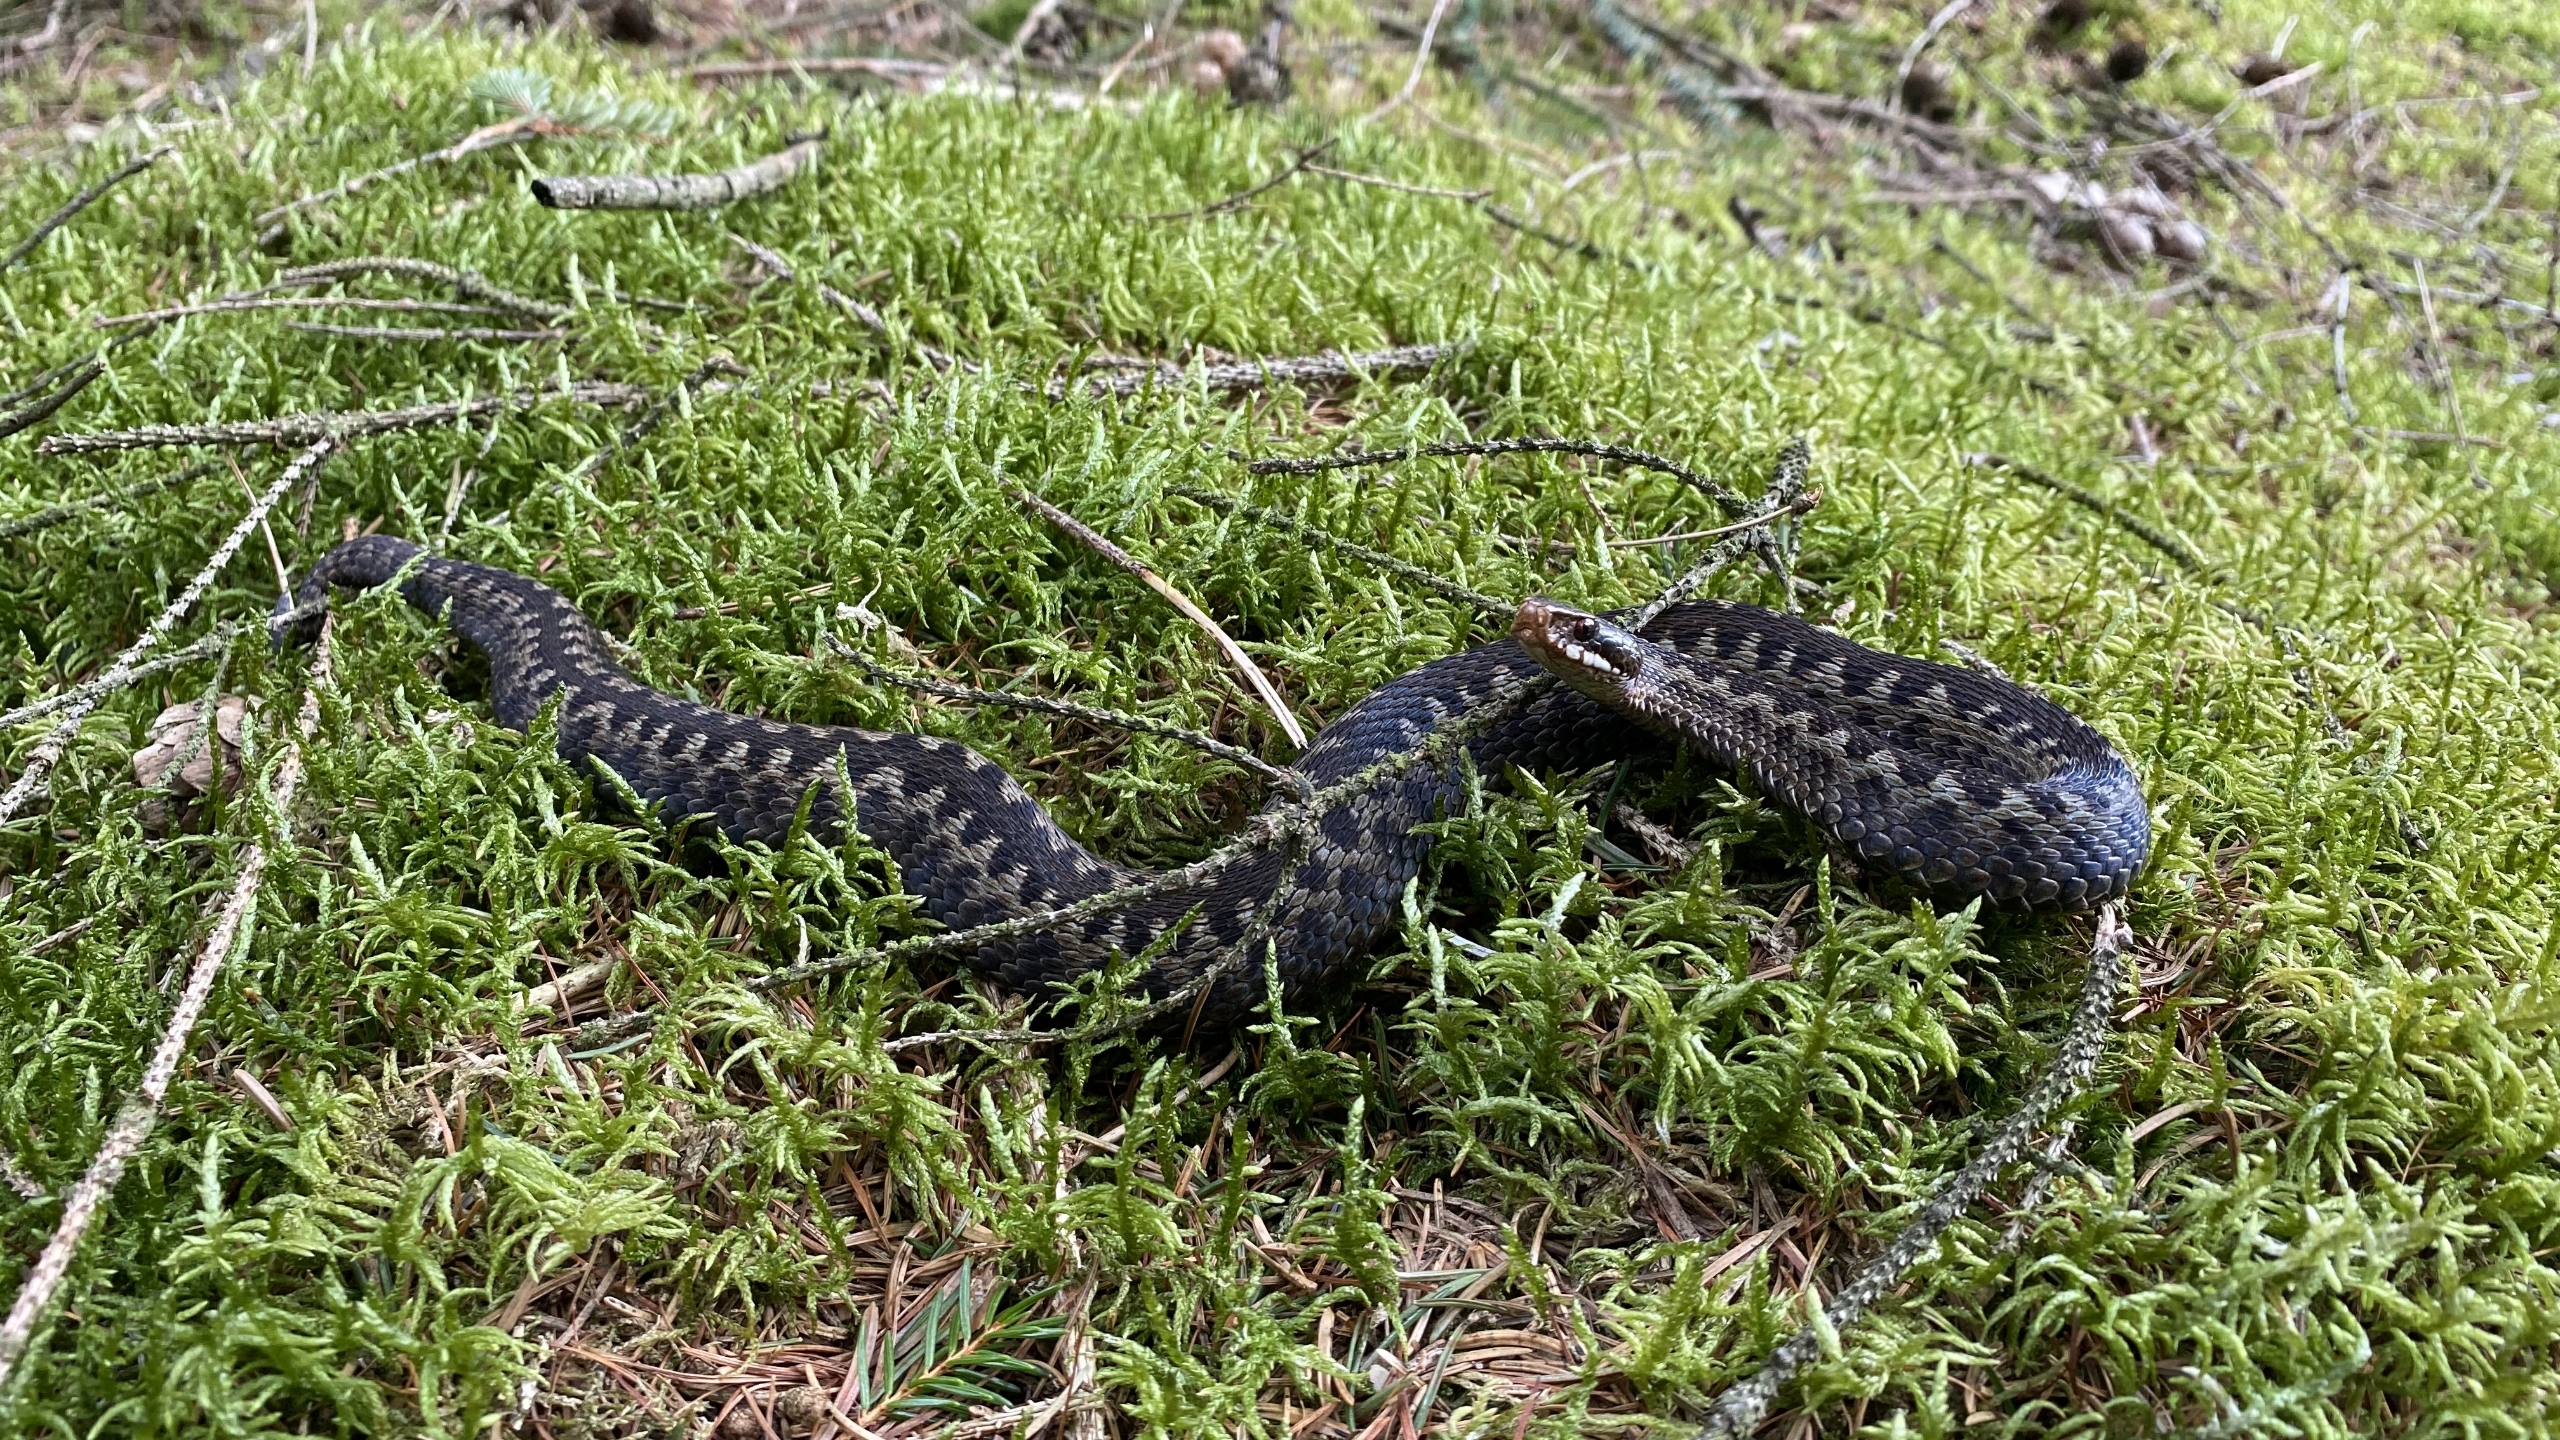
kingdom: Animalia
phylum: Chordata
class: Squamata
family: Viperidae
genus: Vipera
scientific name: Vipera berus
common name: Hugorm
